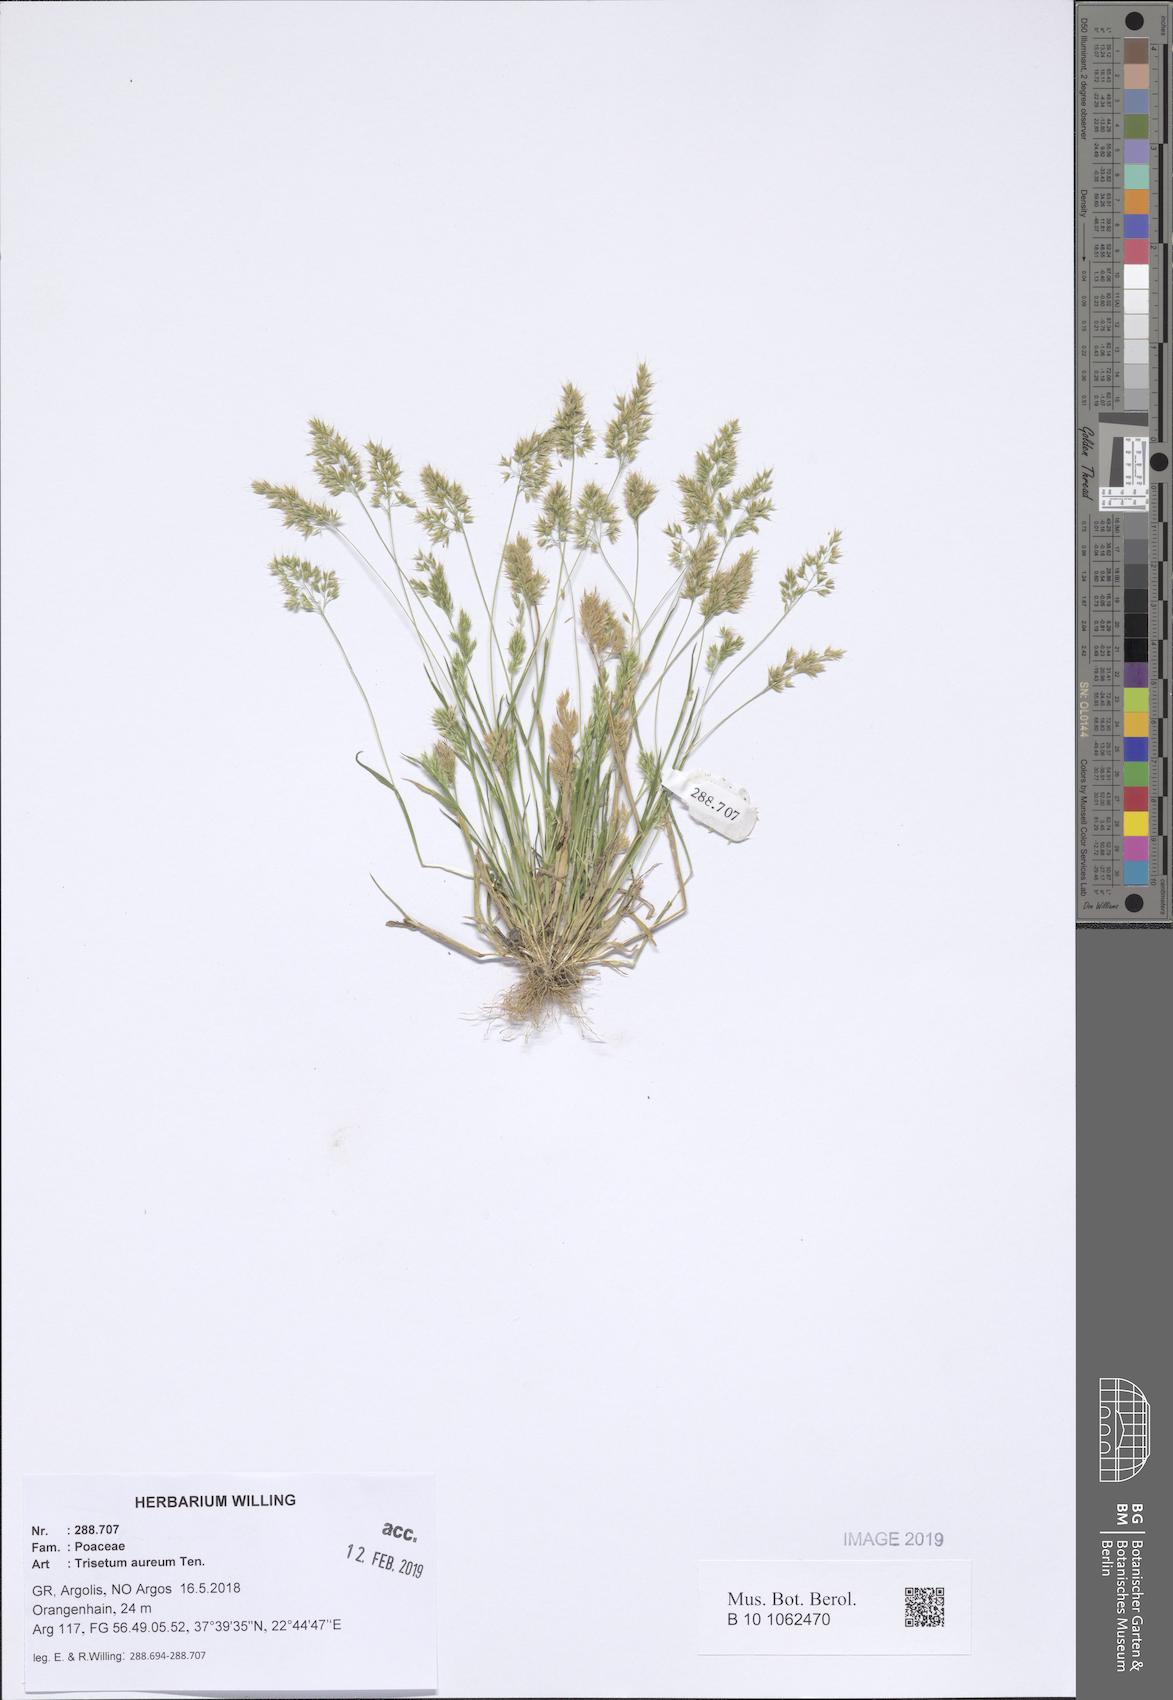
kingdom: Plantae
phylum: Tracheophyta
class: Liliopsida
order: Poales
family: Poaceae
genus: Trisetaria
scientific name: Trisetaria aurea
